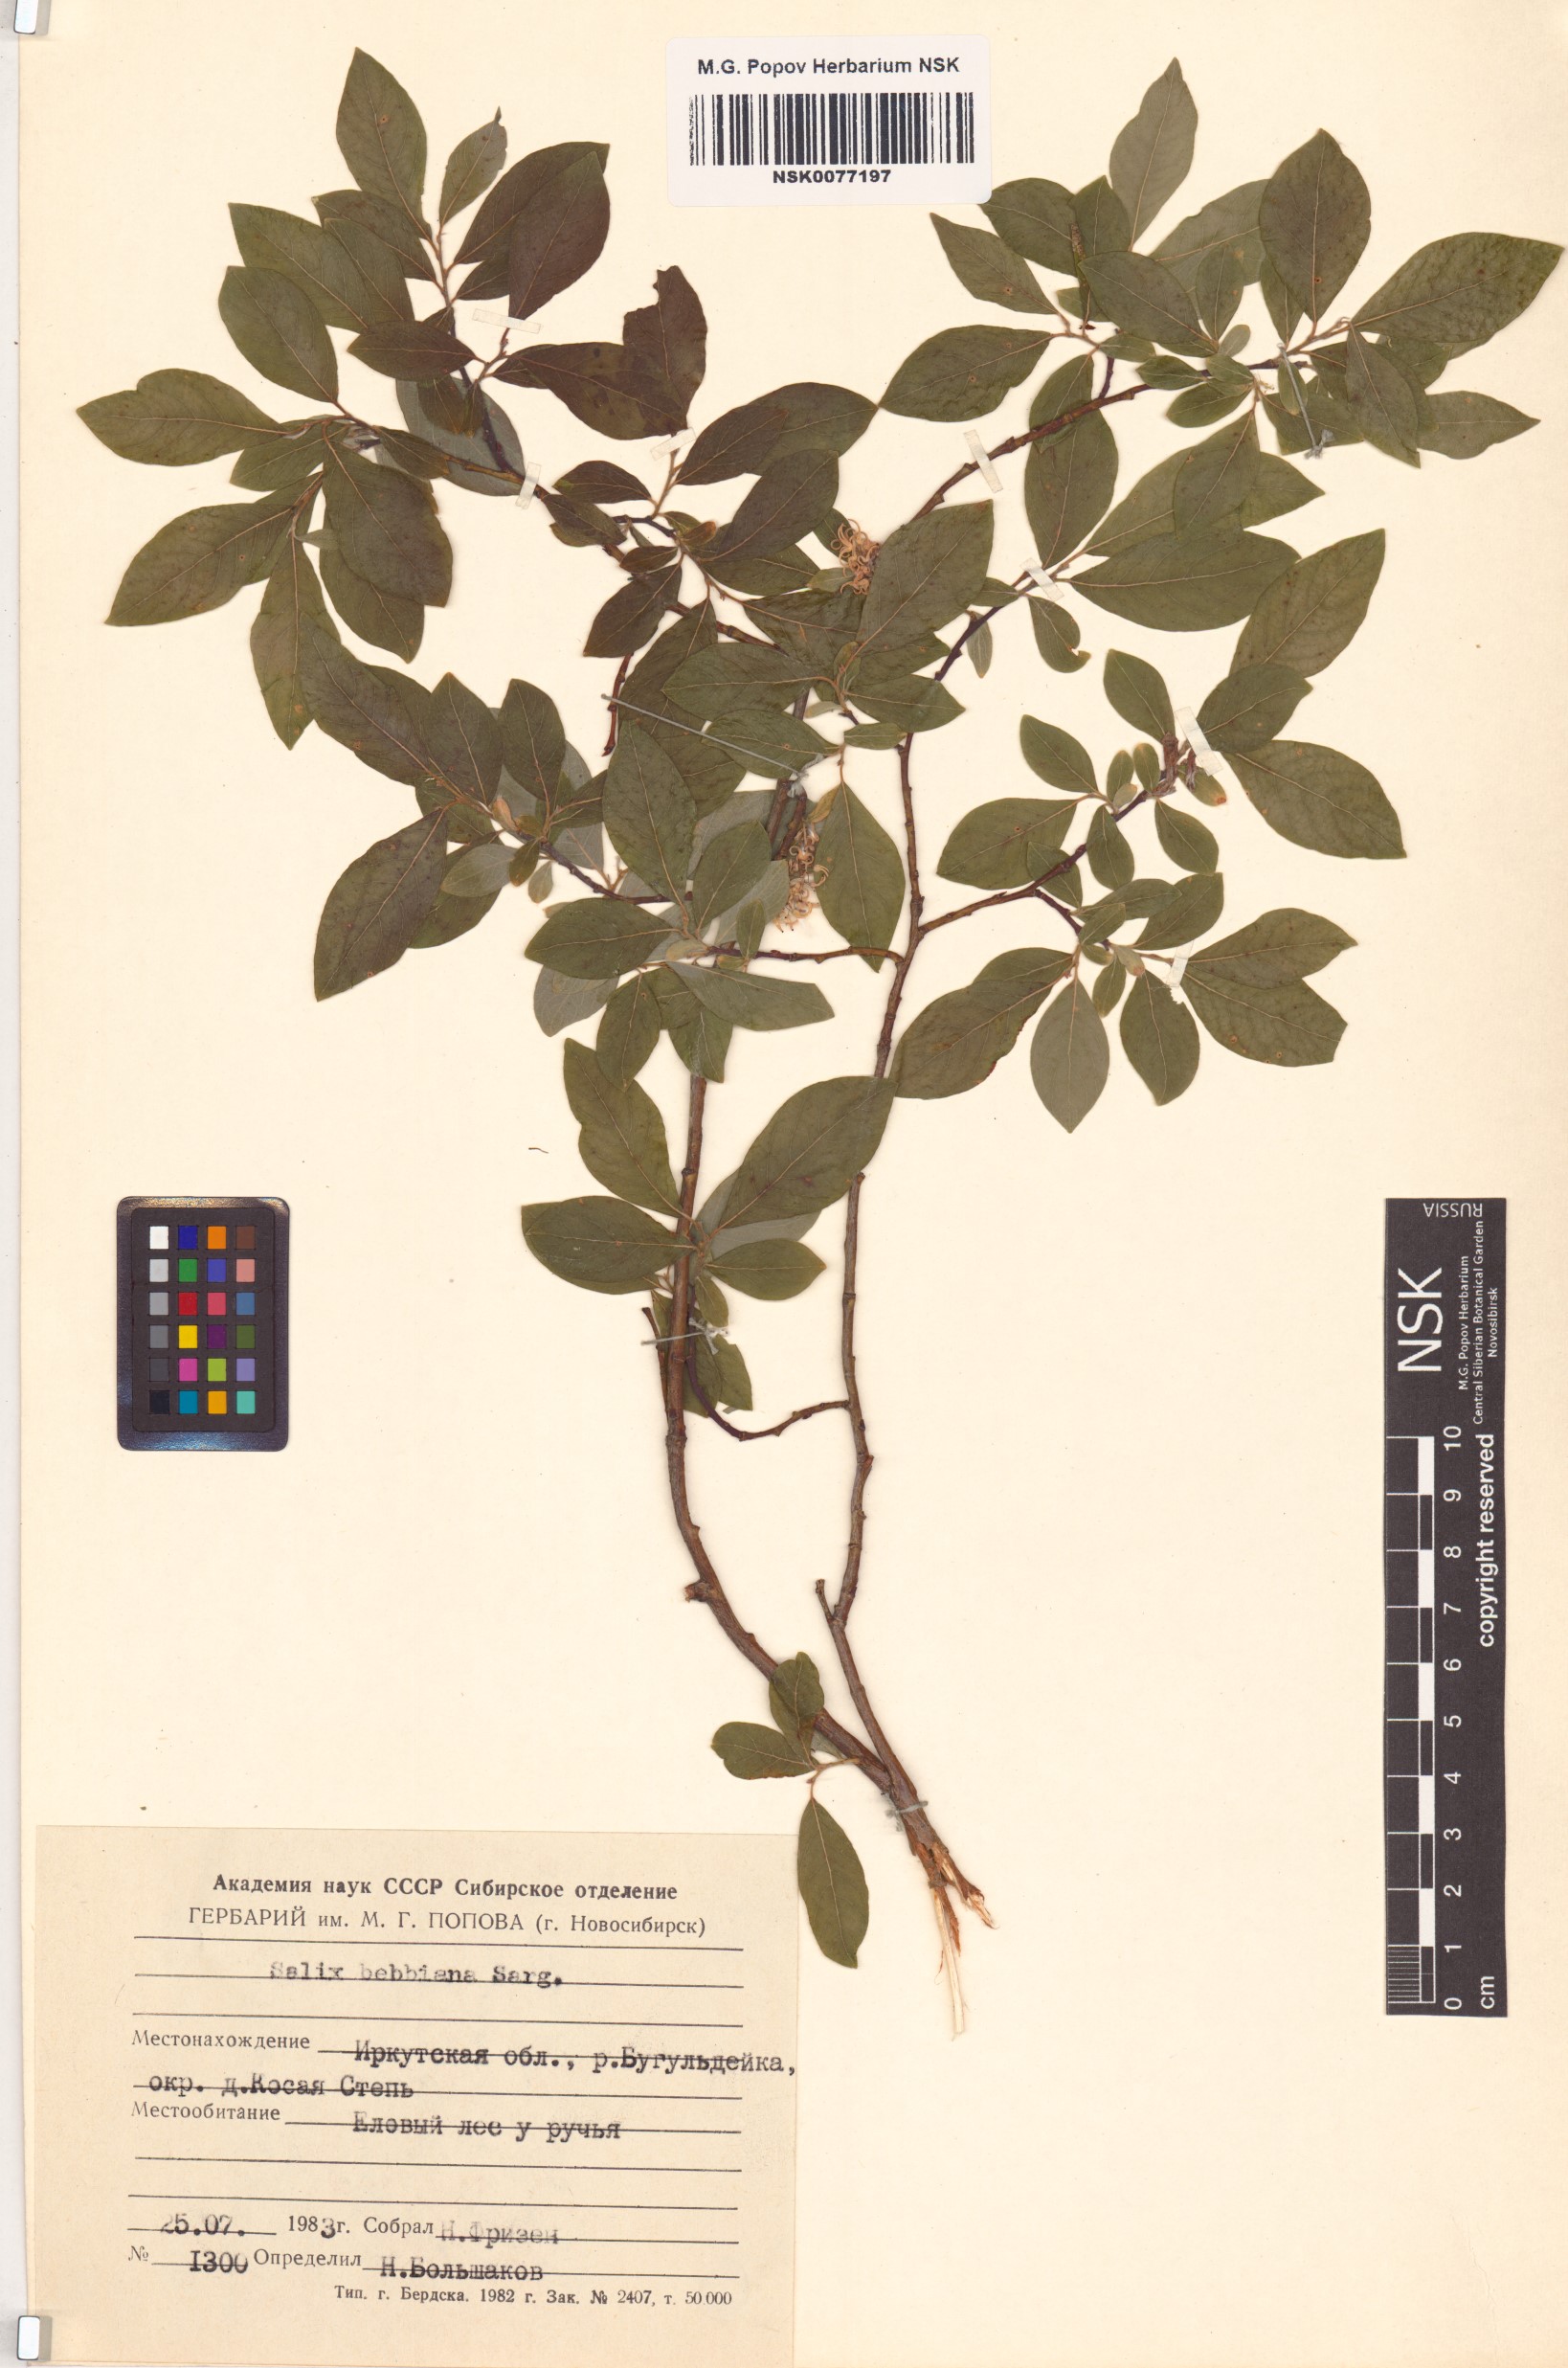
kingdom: Plantae
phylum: Tracheophyta
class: Magnoliopsida
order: Malpighiales
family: Salicaceae
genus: Salix
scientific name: Salix bebbiana
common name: Bebb's willow
